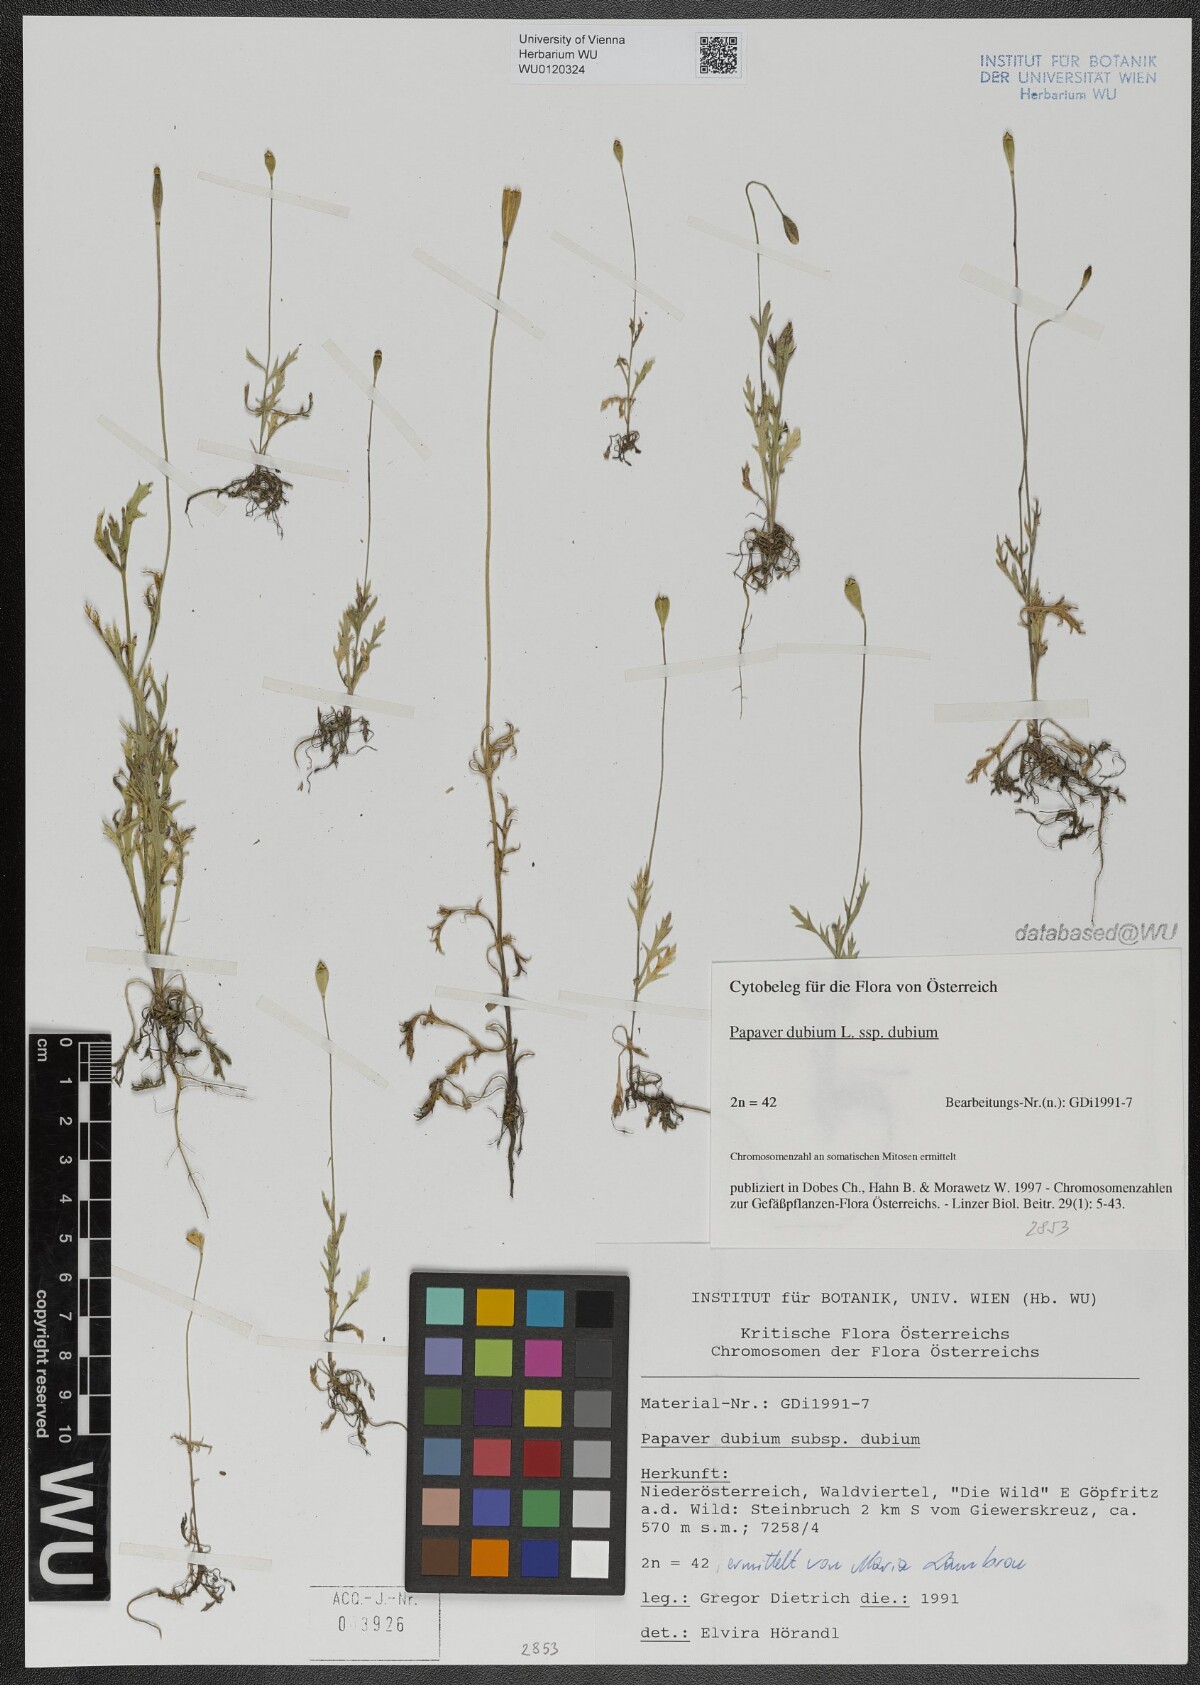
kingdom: Plantae
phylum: Tracheophyta
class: Magnoliopsida
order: Ranunculales
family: Papaveraceae
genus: Papaver
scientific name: Papaver dubium
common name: Long-headed poppy
